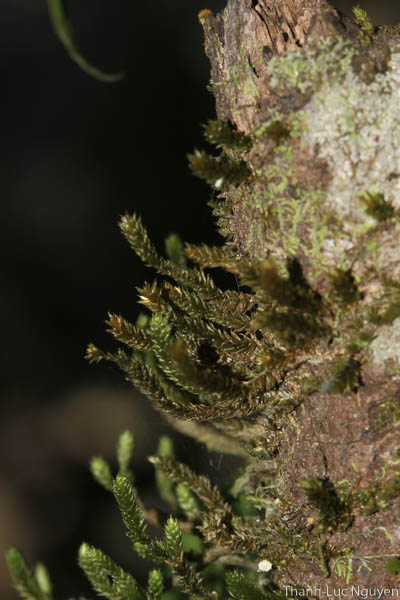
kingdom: Plantae
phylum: Bryophyta
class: Bryopsida
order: Hypnales
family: Pterobryaceae
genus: Pterobryopsis
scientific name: Pterobryopsis crassicaulis
